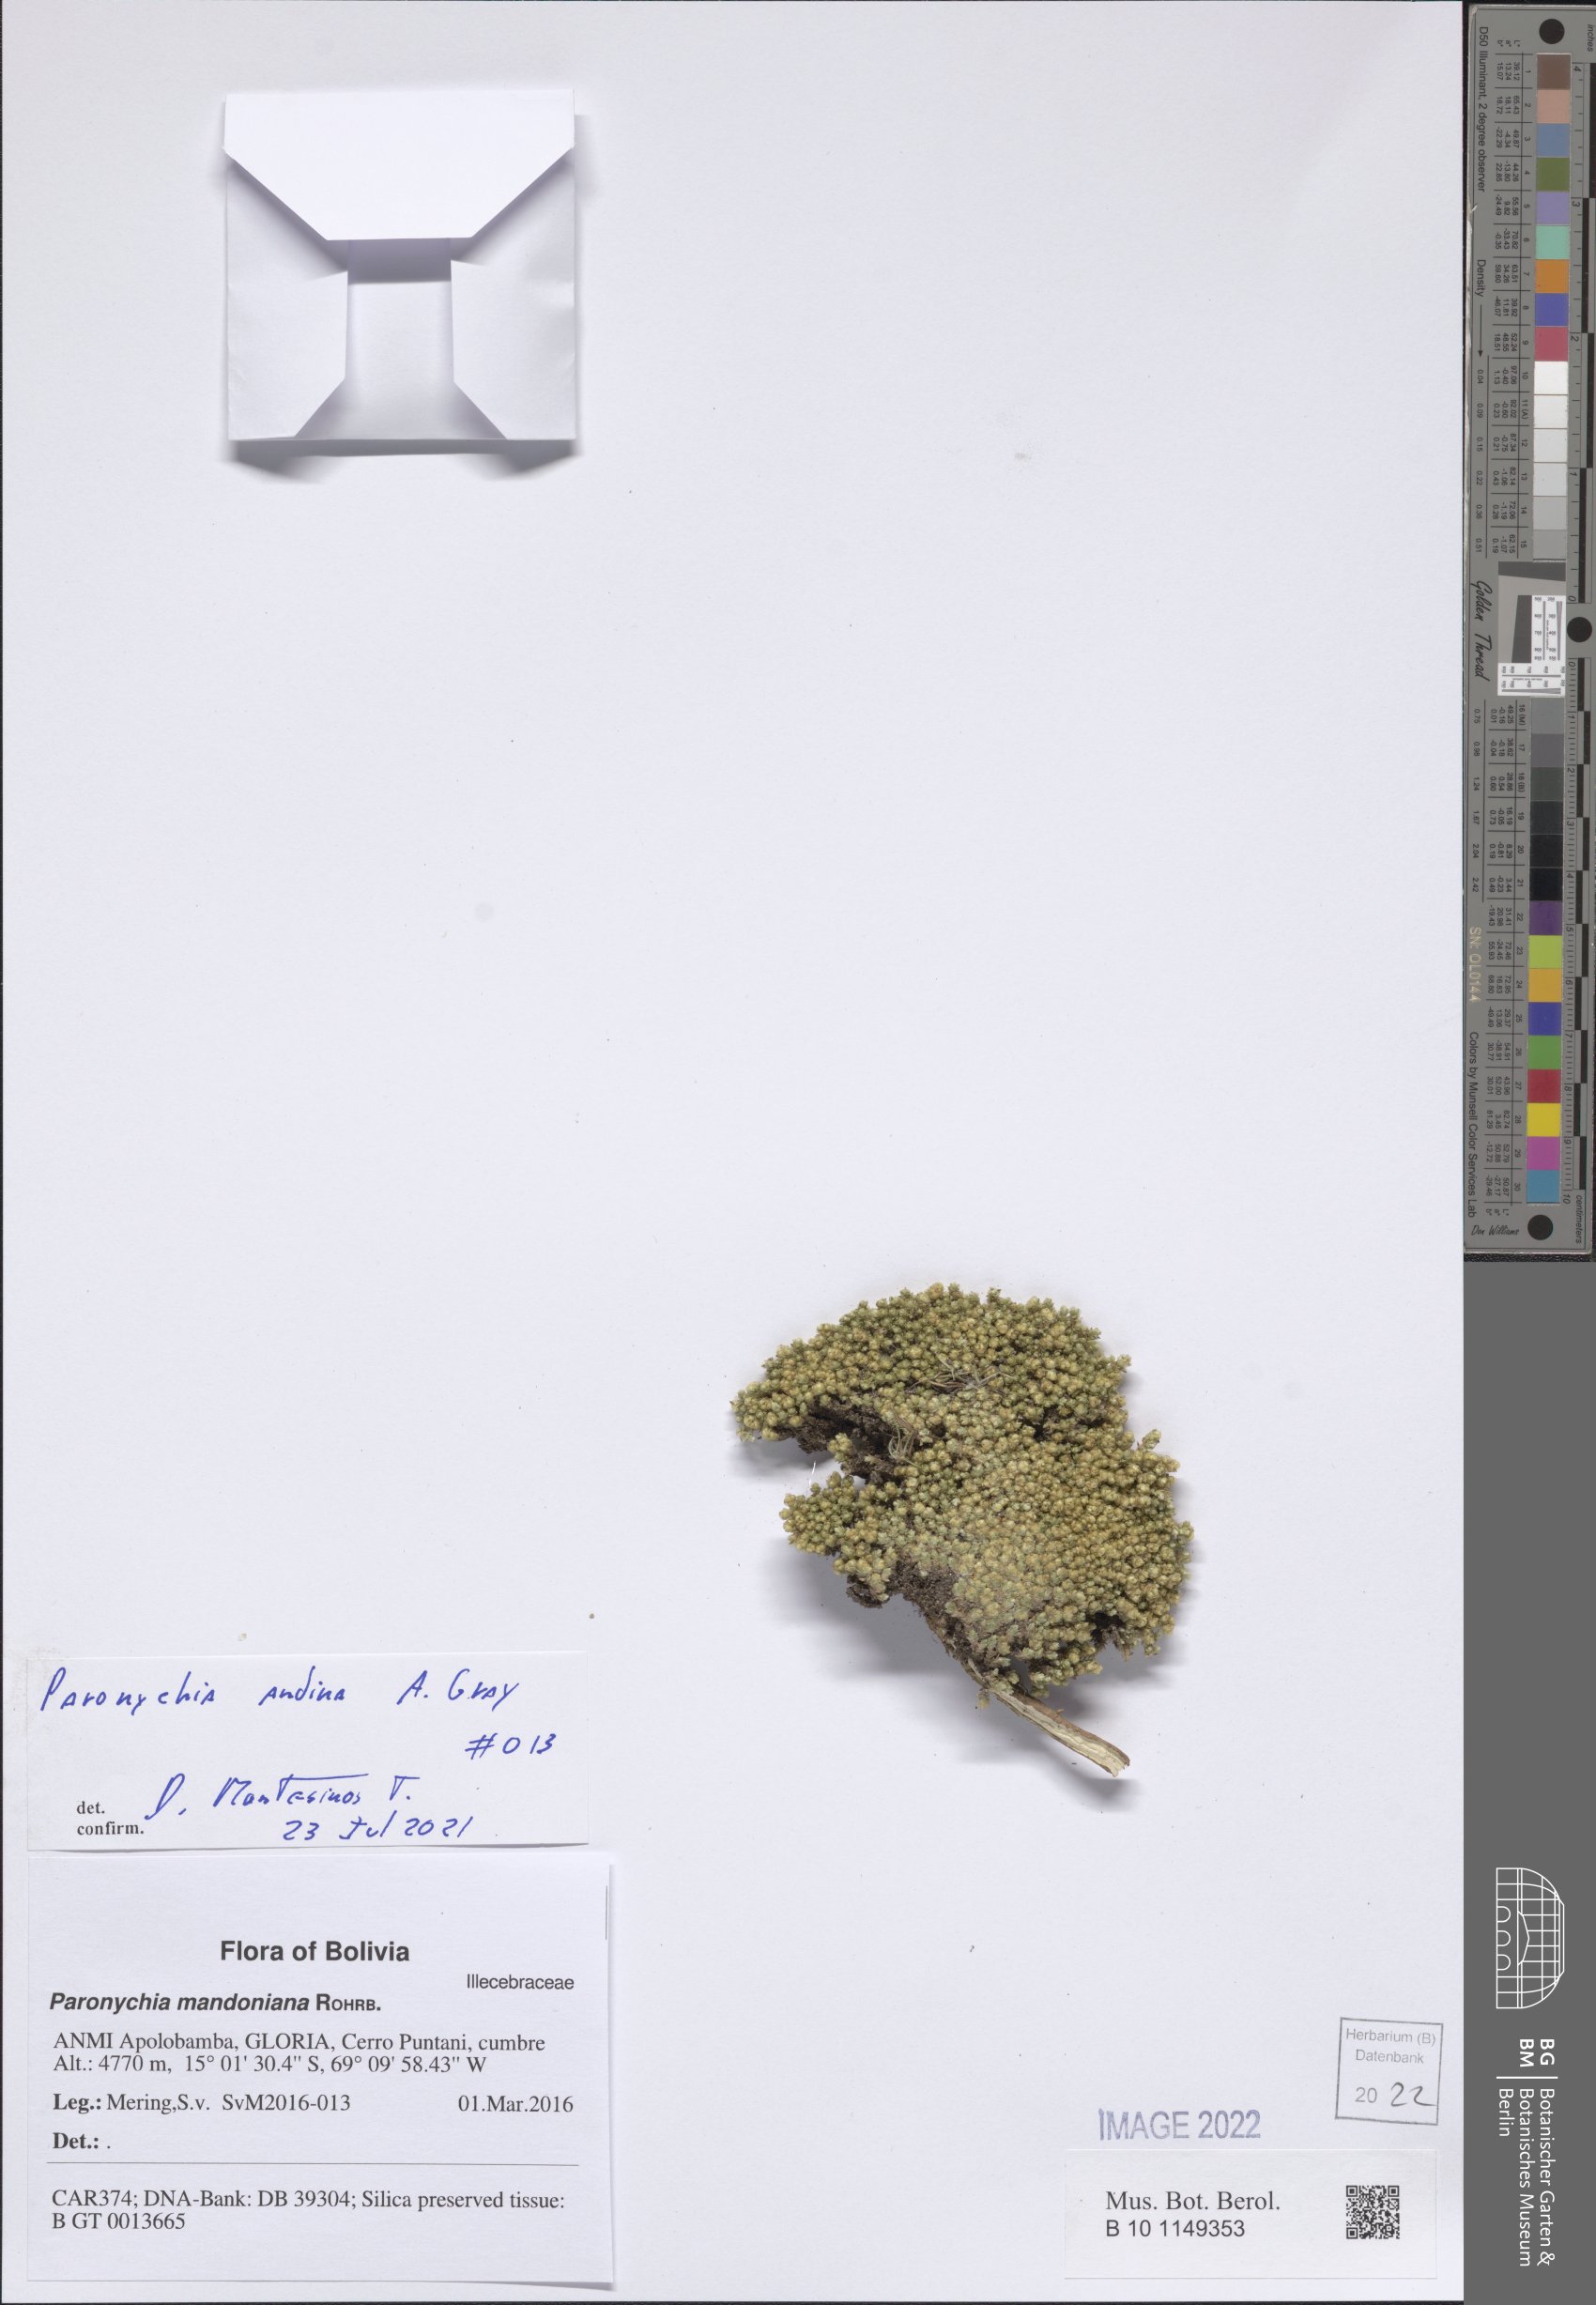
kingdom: Plantae
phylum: Tracheophyta
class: Magnoliopsida
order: Caryophyllales
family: Caryophyllaceae
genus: Paronychia
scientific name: Paronychia
